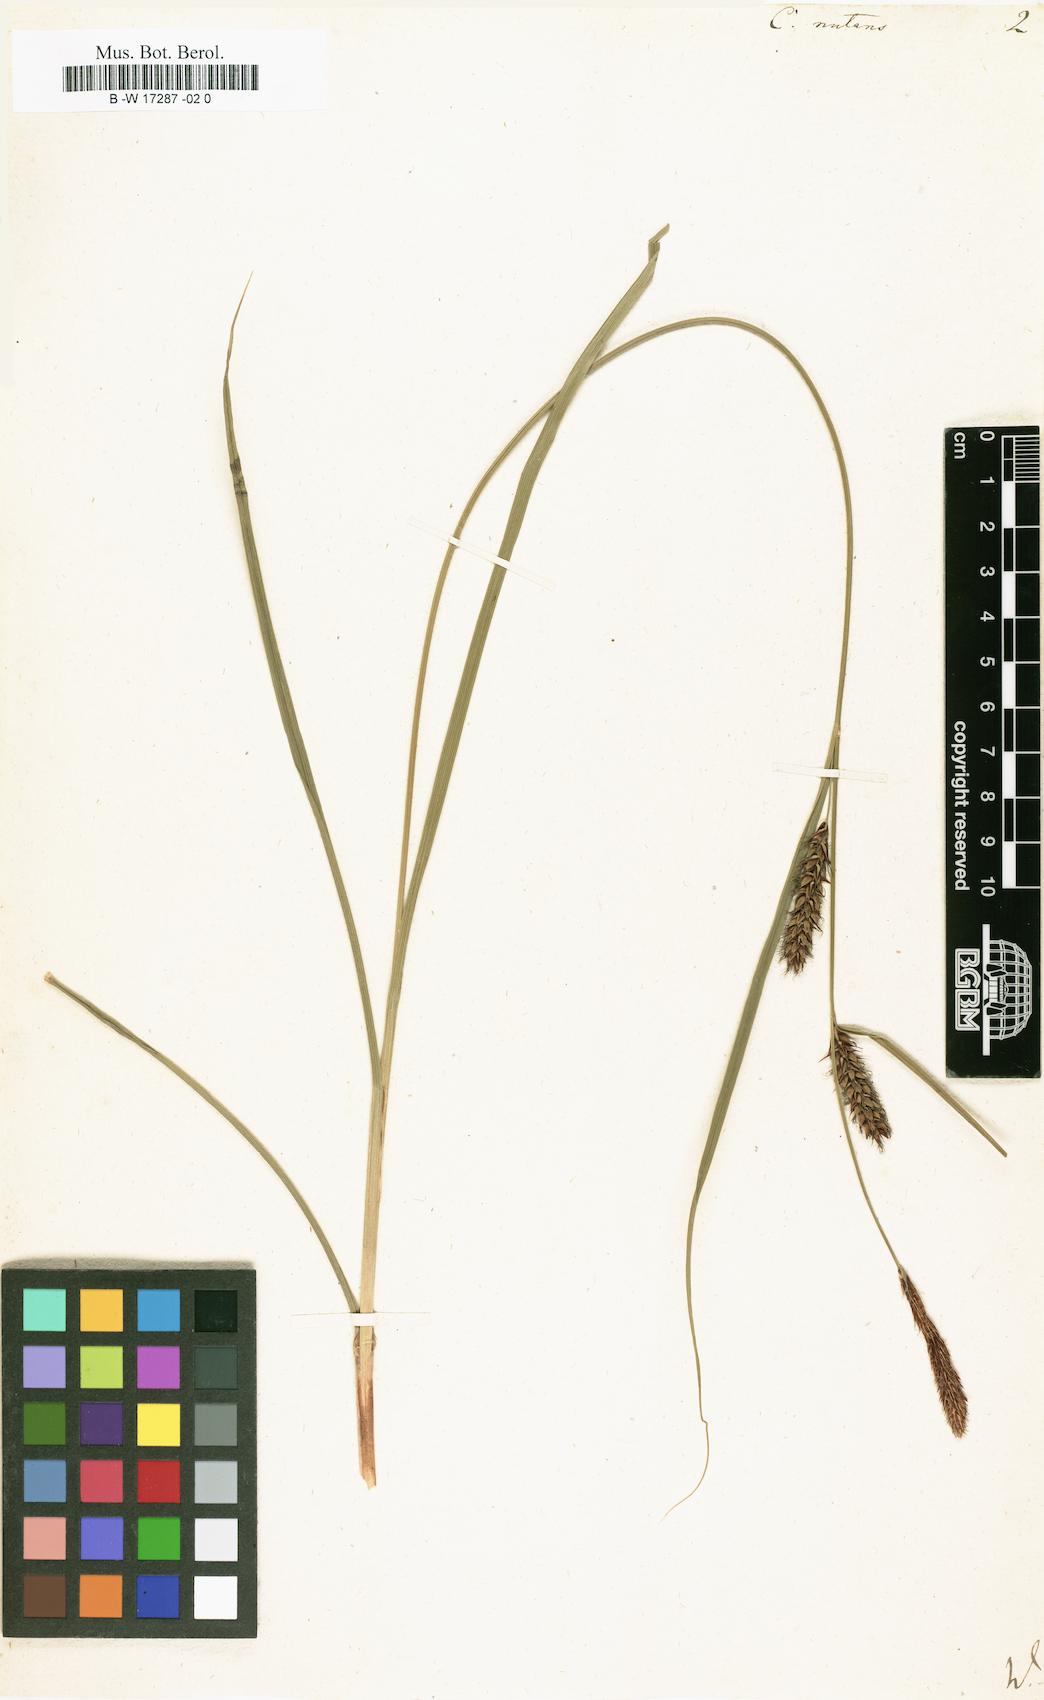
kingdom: Plantae
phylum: Tracheophyta
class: Liliopsida
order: Poales
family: Cyperaceae
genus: Carex
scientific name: Carex nutans
